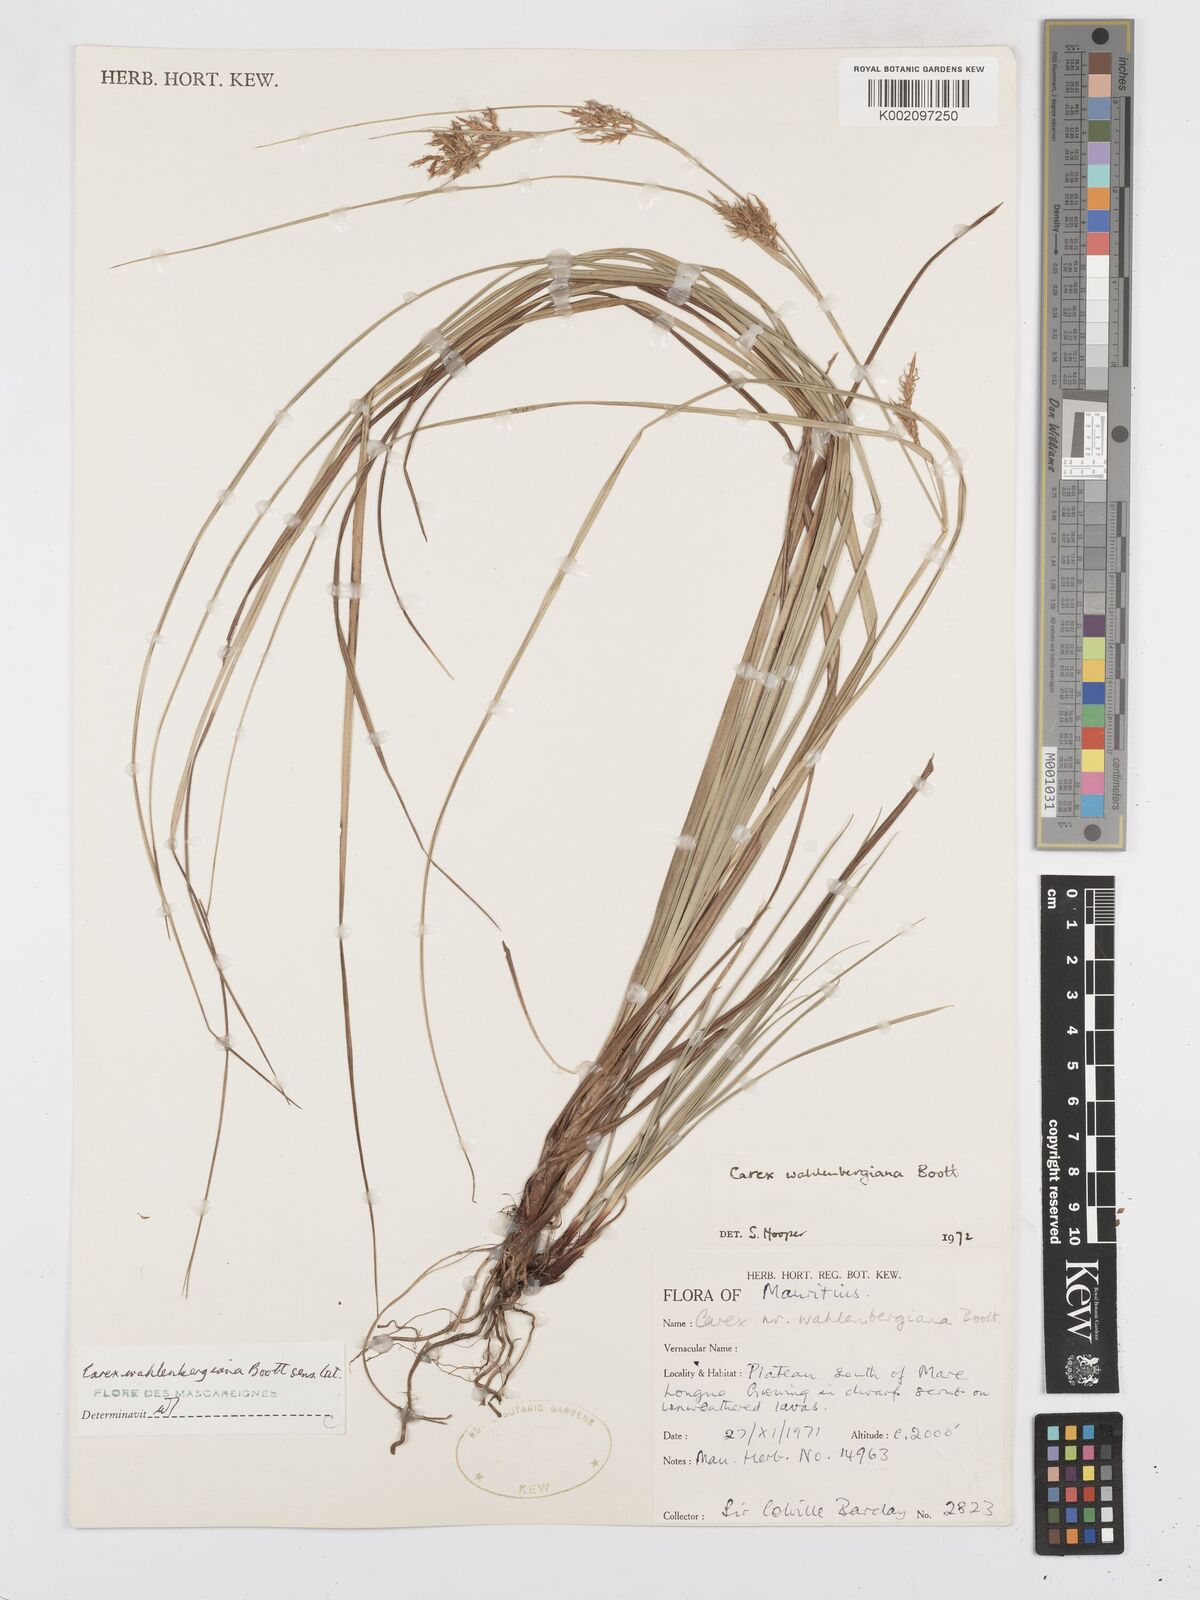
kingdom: Plantae
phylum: Tracheophyta
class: Liliopsida
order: Poales
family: Cyperaceae
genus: Carex
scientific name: Carex wahlenbergiana
